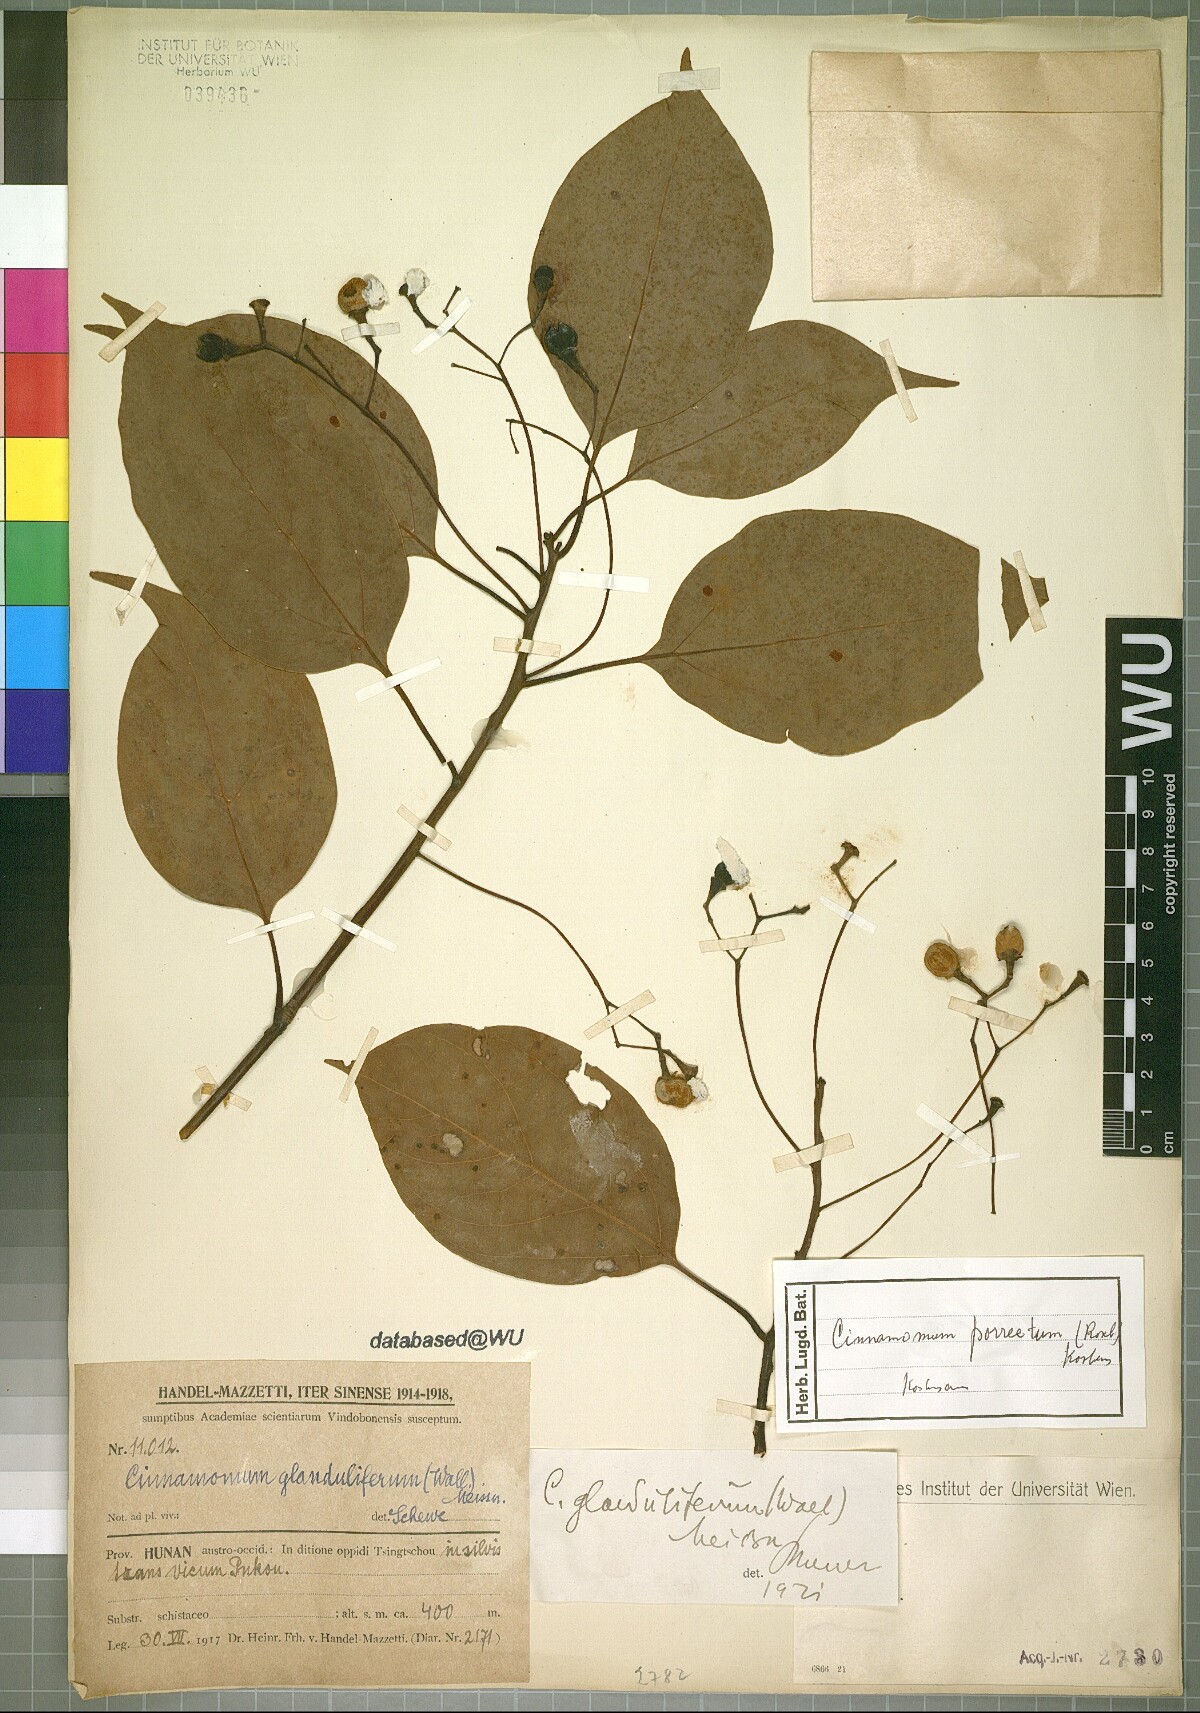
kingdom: Plantae
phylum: Tracheophyta
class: Magnoliopsida
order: Laurales
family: Lauraceae
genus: Cinnamomum
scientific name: Cinnamomum parthenoxylon
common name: Martaban camphor wood
